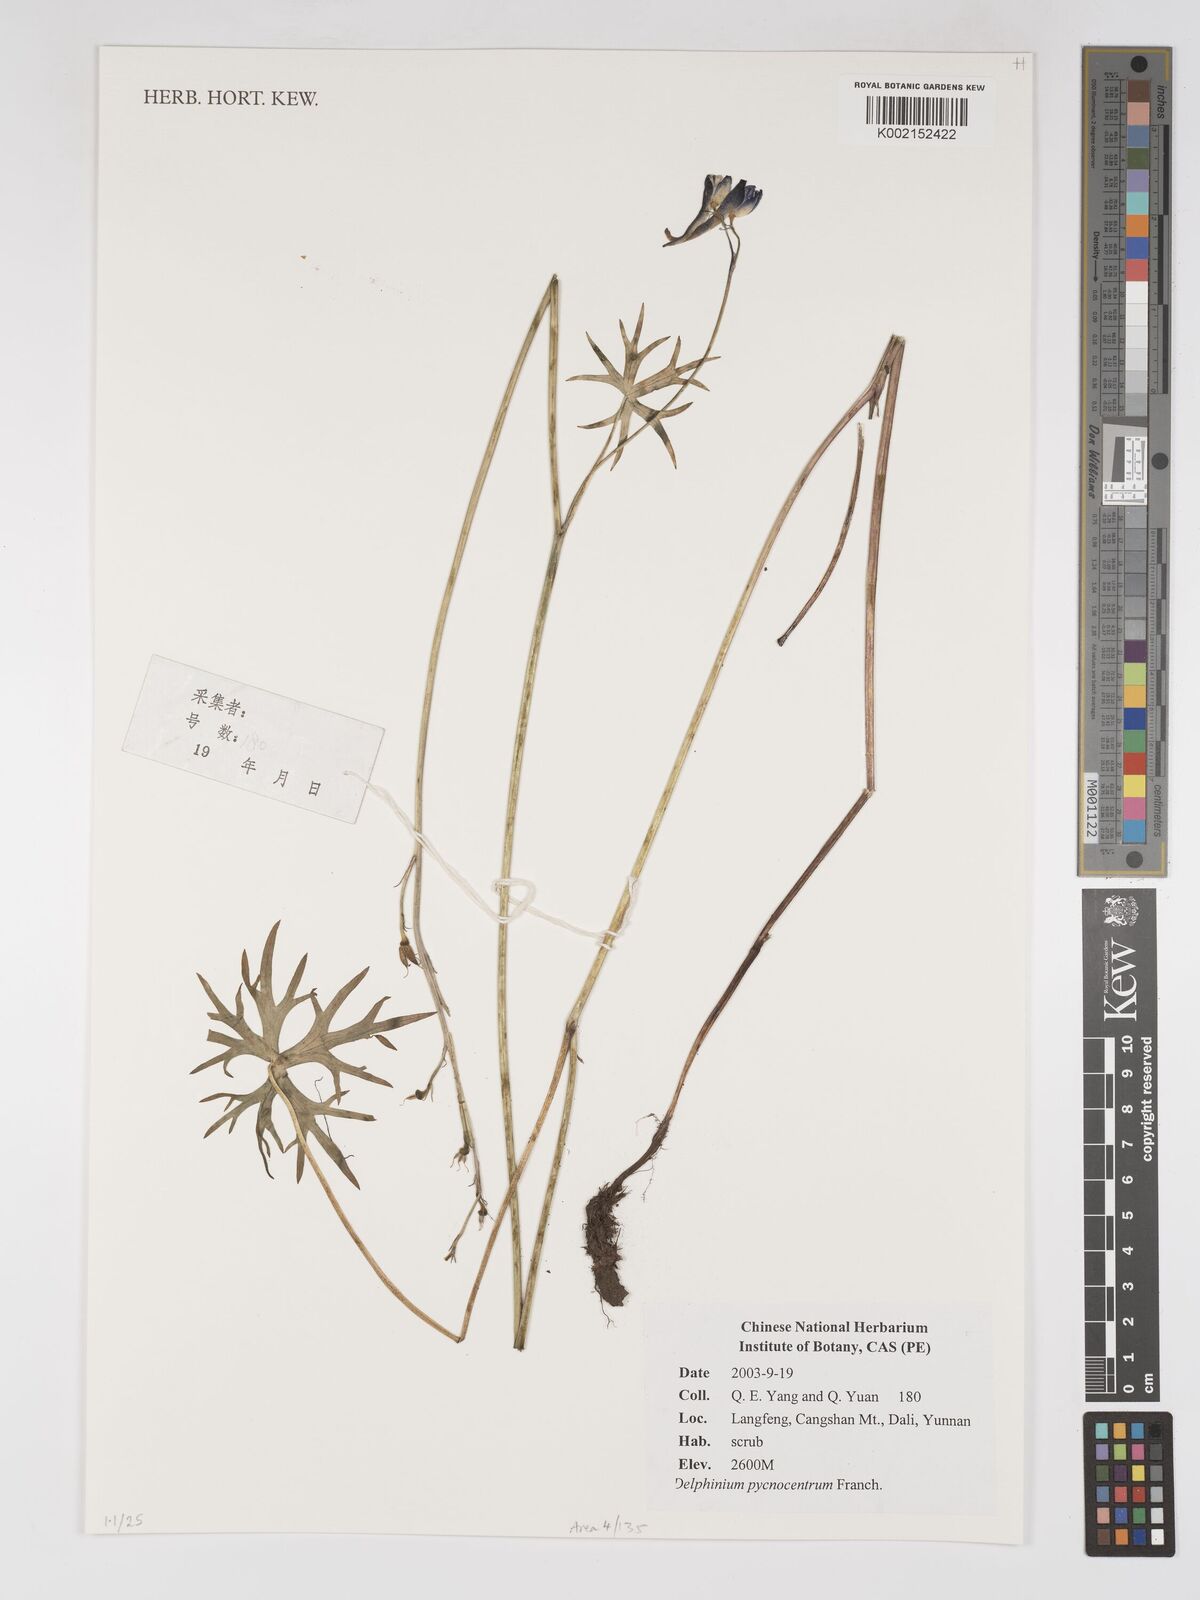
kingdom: Plantae
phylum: Tracheophyta
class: Magnoliopsida
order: Ranunculales
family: Ranunculaceae
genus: Delphinium
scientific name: Delphinium pycnocentrum
